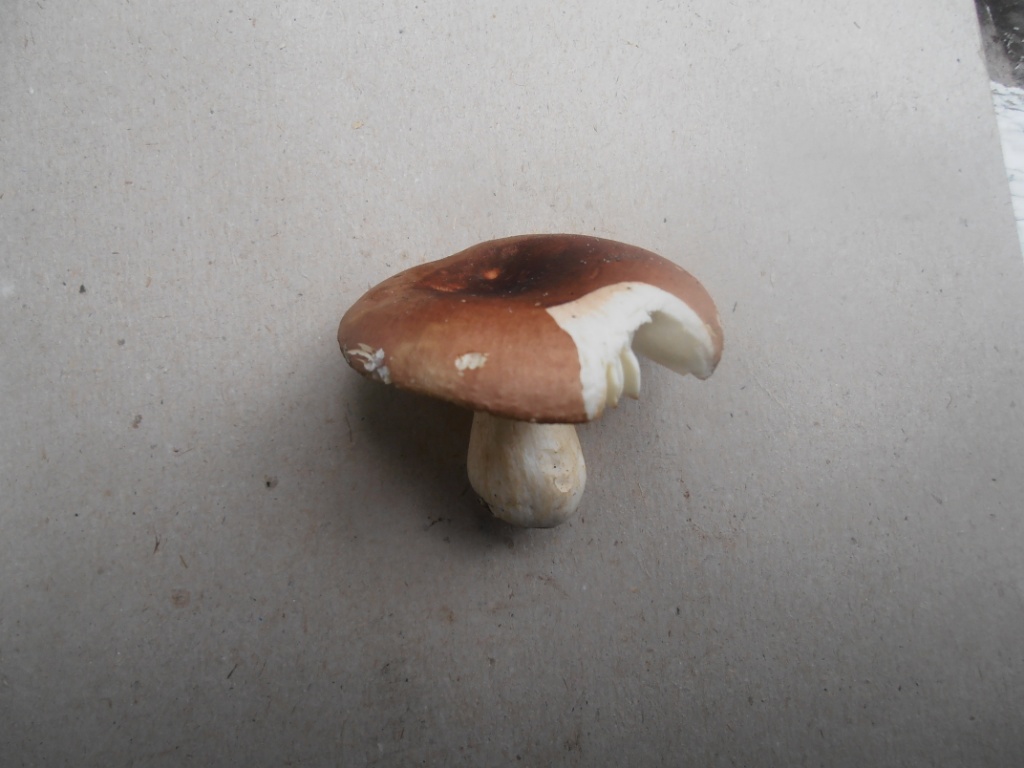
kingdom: Fungi
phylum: Basidiomycota
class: Agaricomycetes
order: Russulales
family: Russulaceae
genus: Russula
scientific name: Russula graveolens
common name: bugtet skørhat
